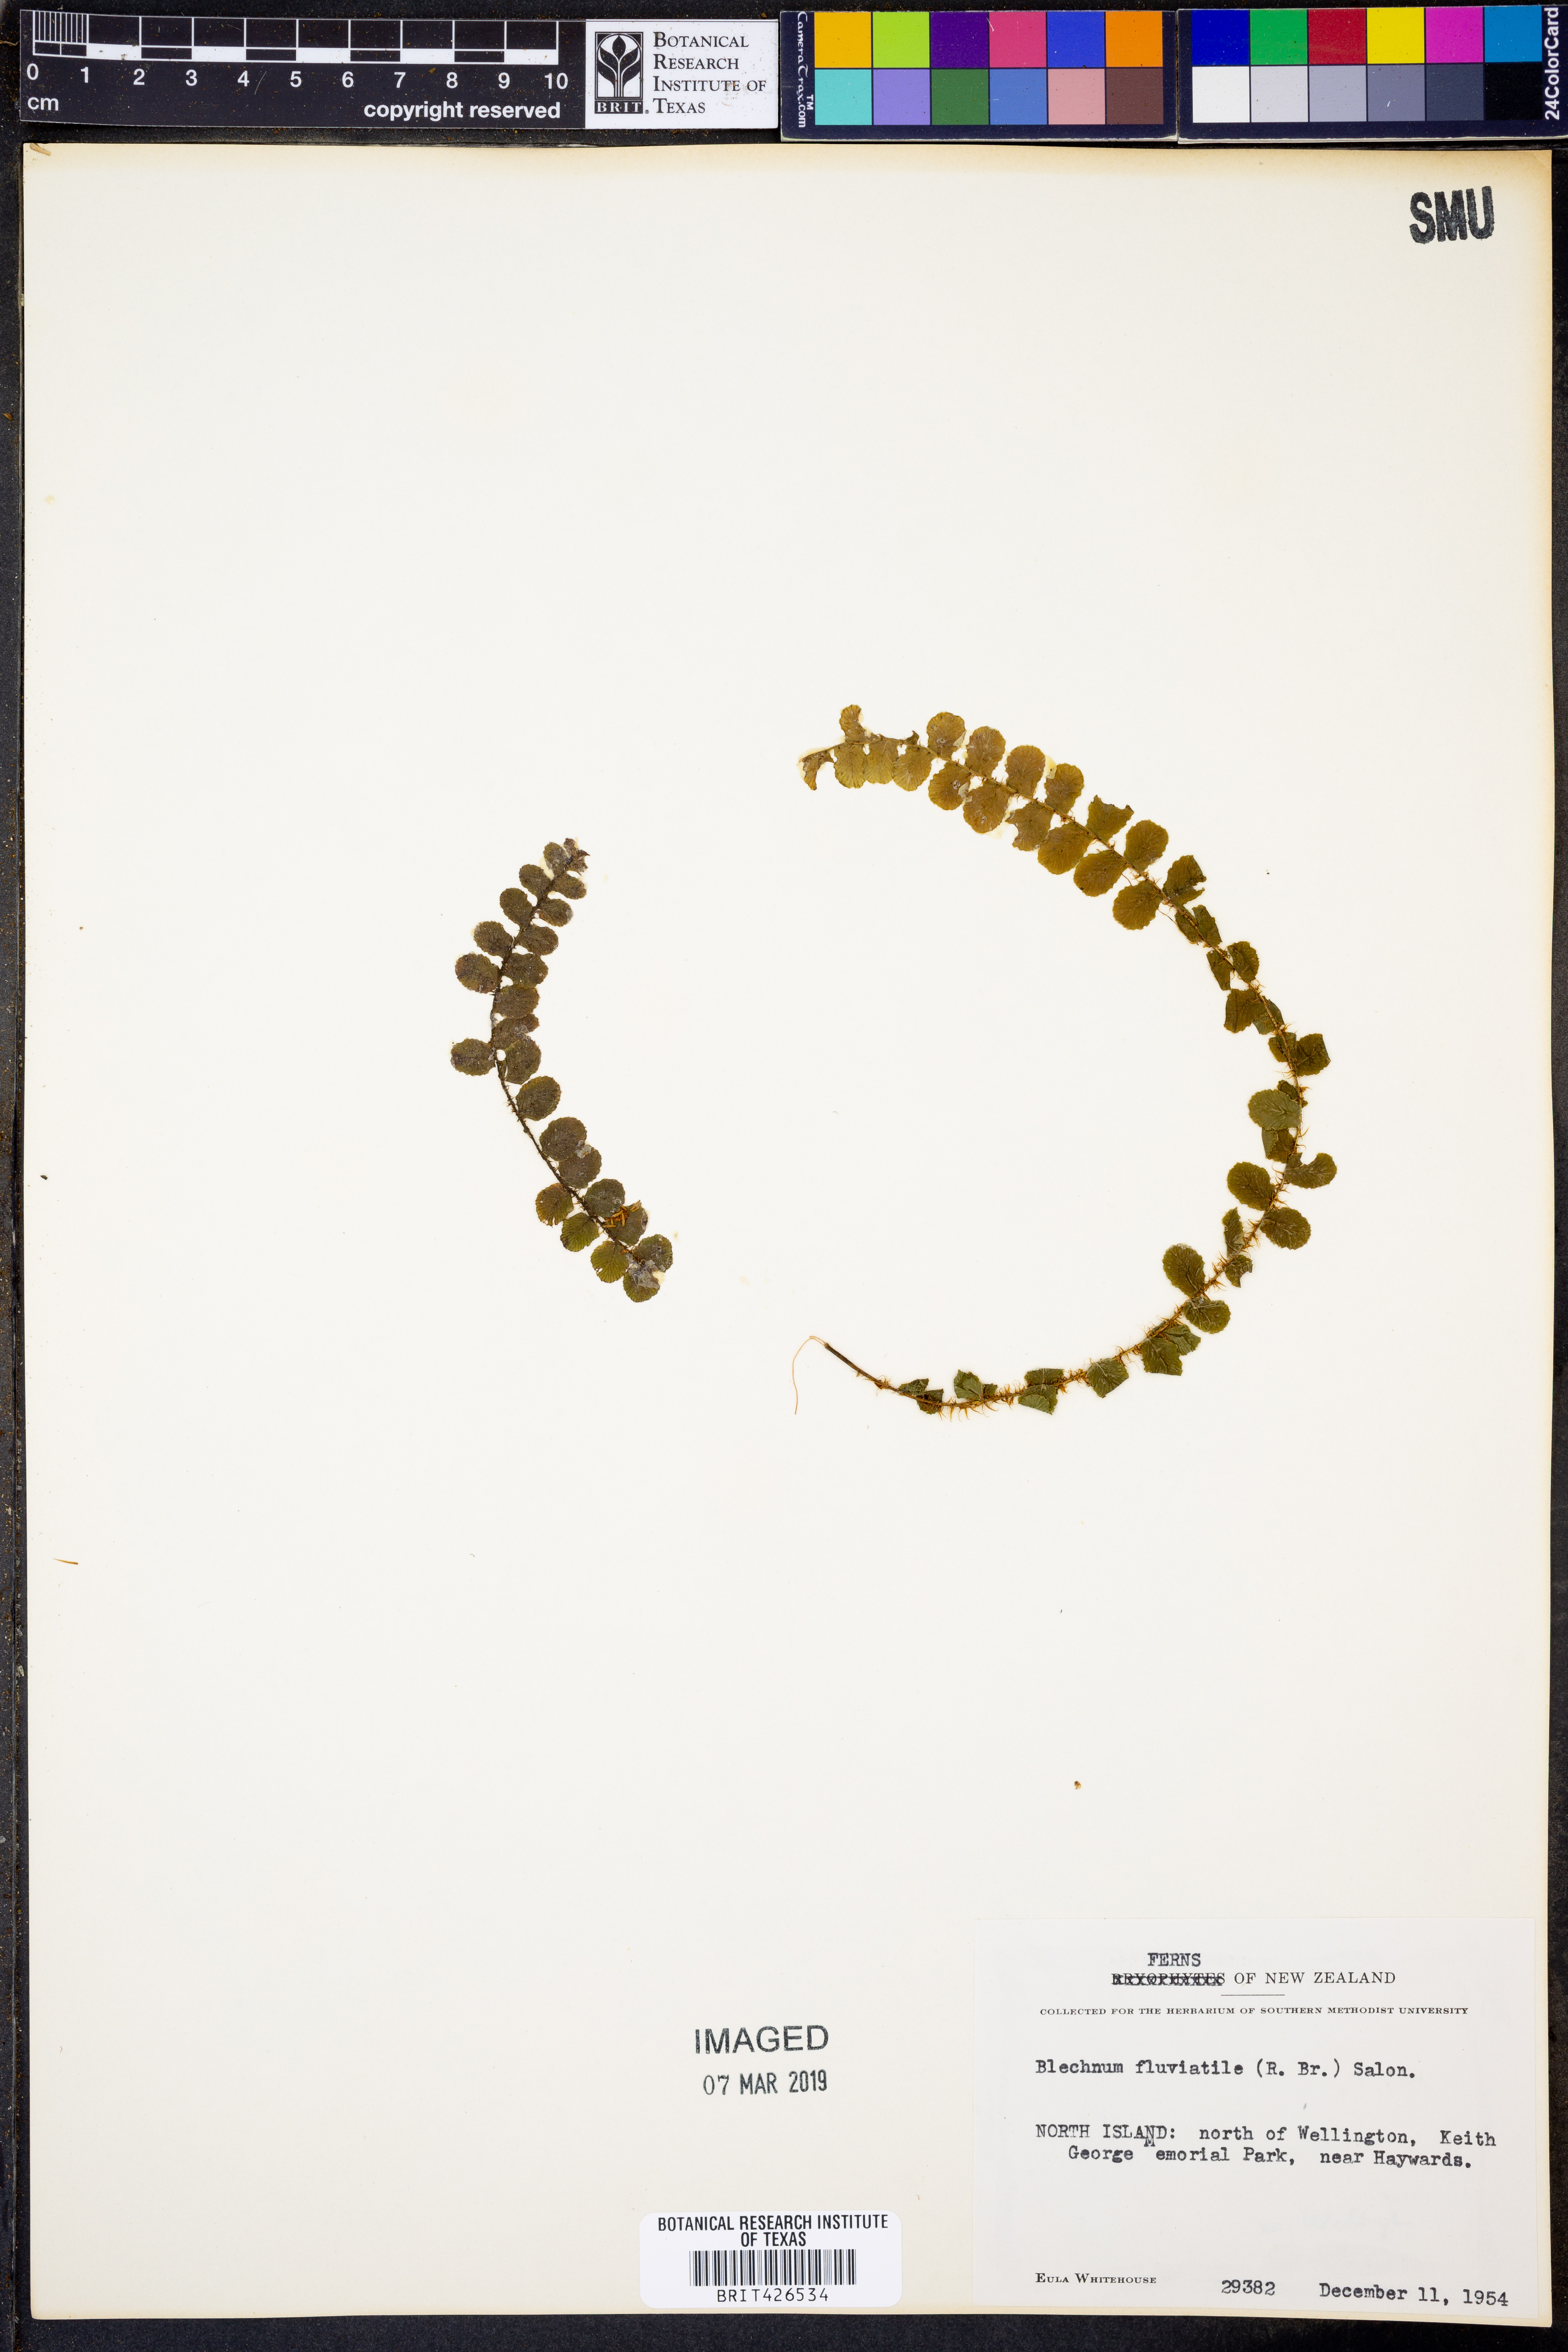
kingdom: Plantae
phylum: Tracheophyta
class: Polypodiopsida
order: Polypodiales
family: Blechnaceae
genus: Cranfillia
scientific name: Cranfillia fluviatilis
